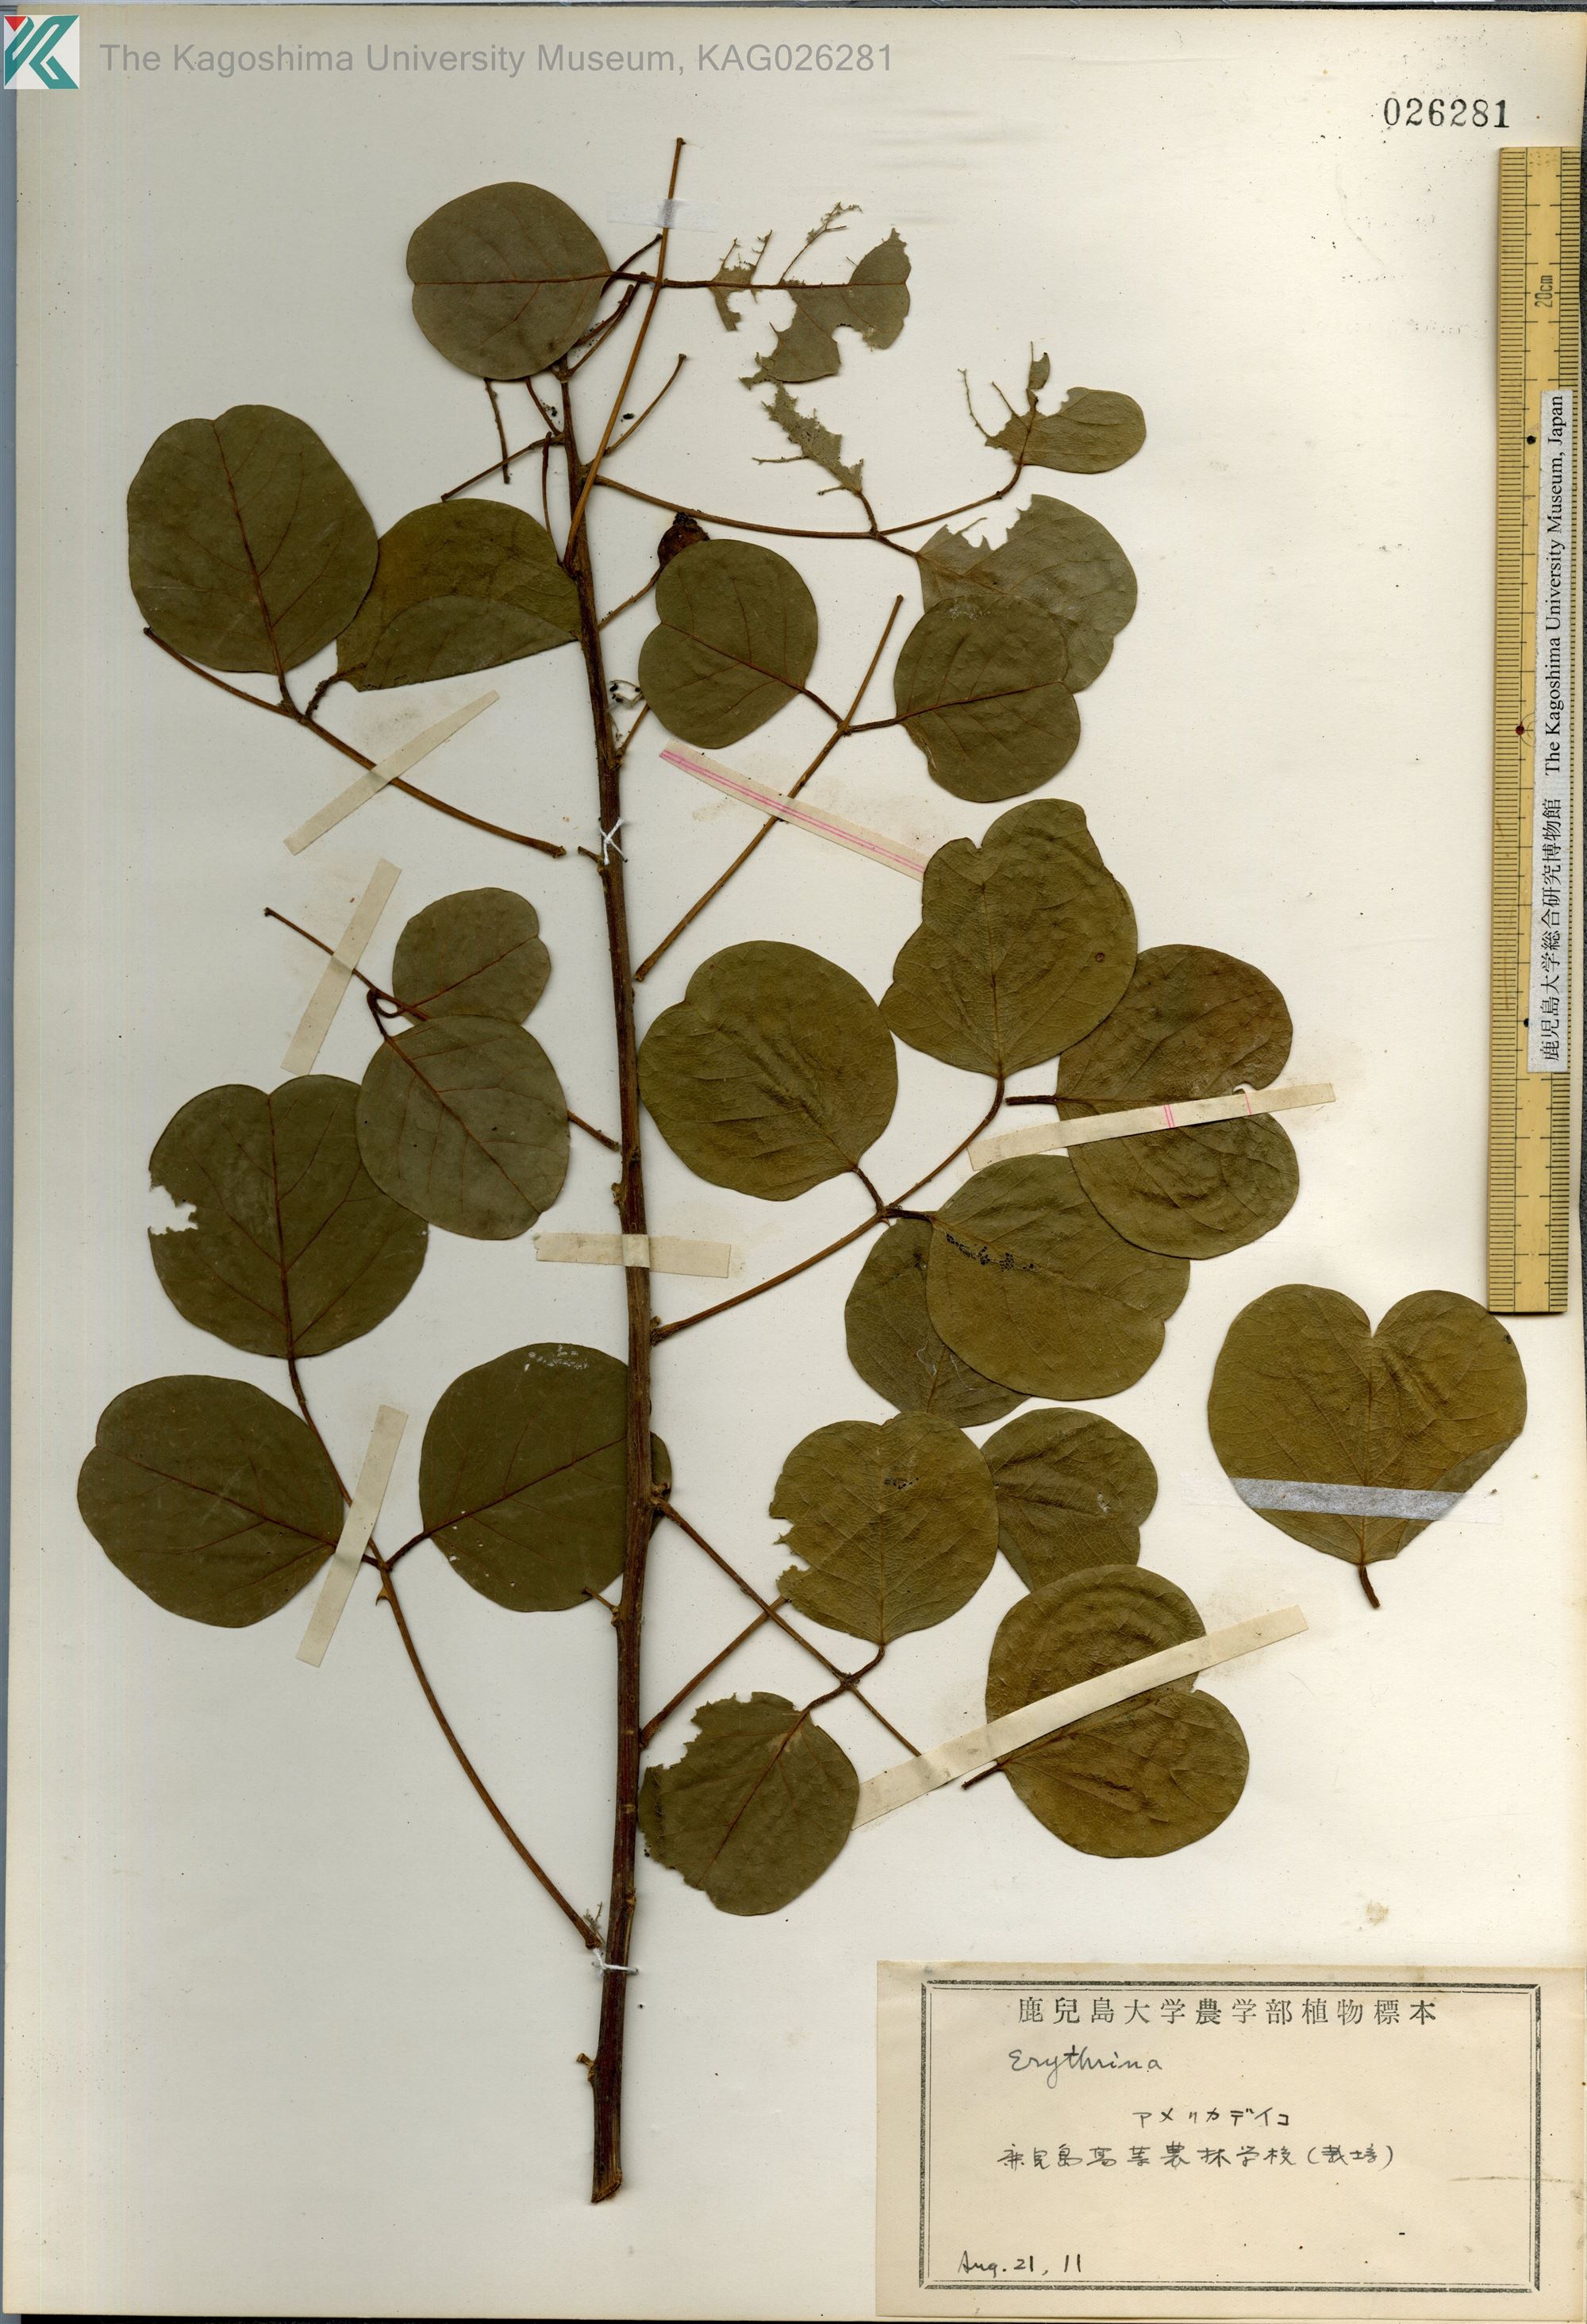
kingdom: Plantae
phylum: Tracheophyta
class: Magnoliopsida
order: Fabales
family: Fabaceae
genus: Erythrina
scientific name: Erythrina crista-galli
